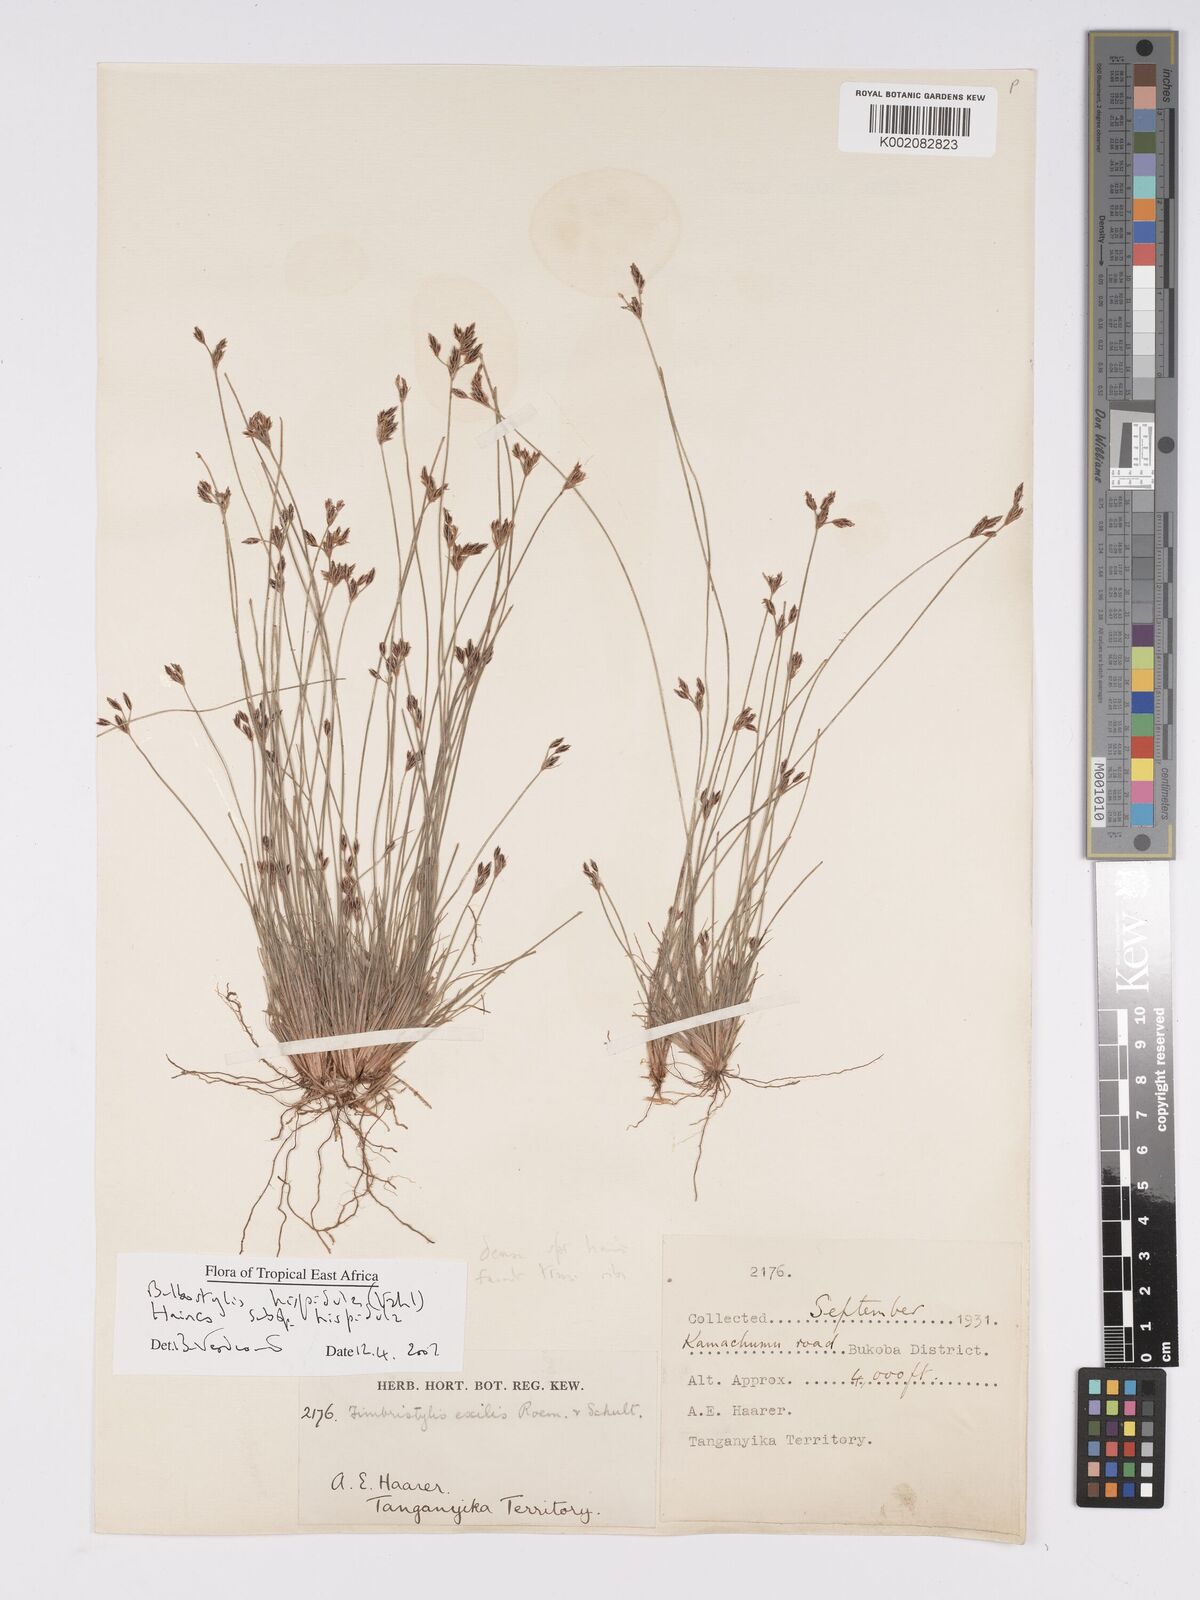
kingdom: Plantae
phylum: Tracheophyta
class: Liliopsida
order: Poales
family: Cyperaceae
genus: Bulbostylis
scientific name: Bulbostylis hispidula
